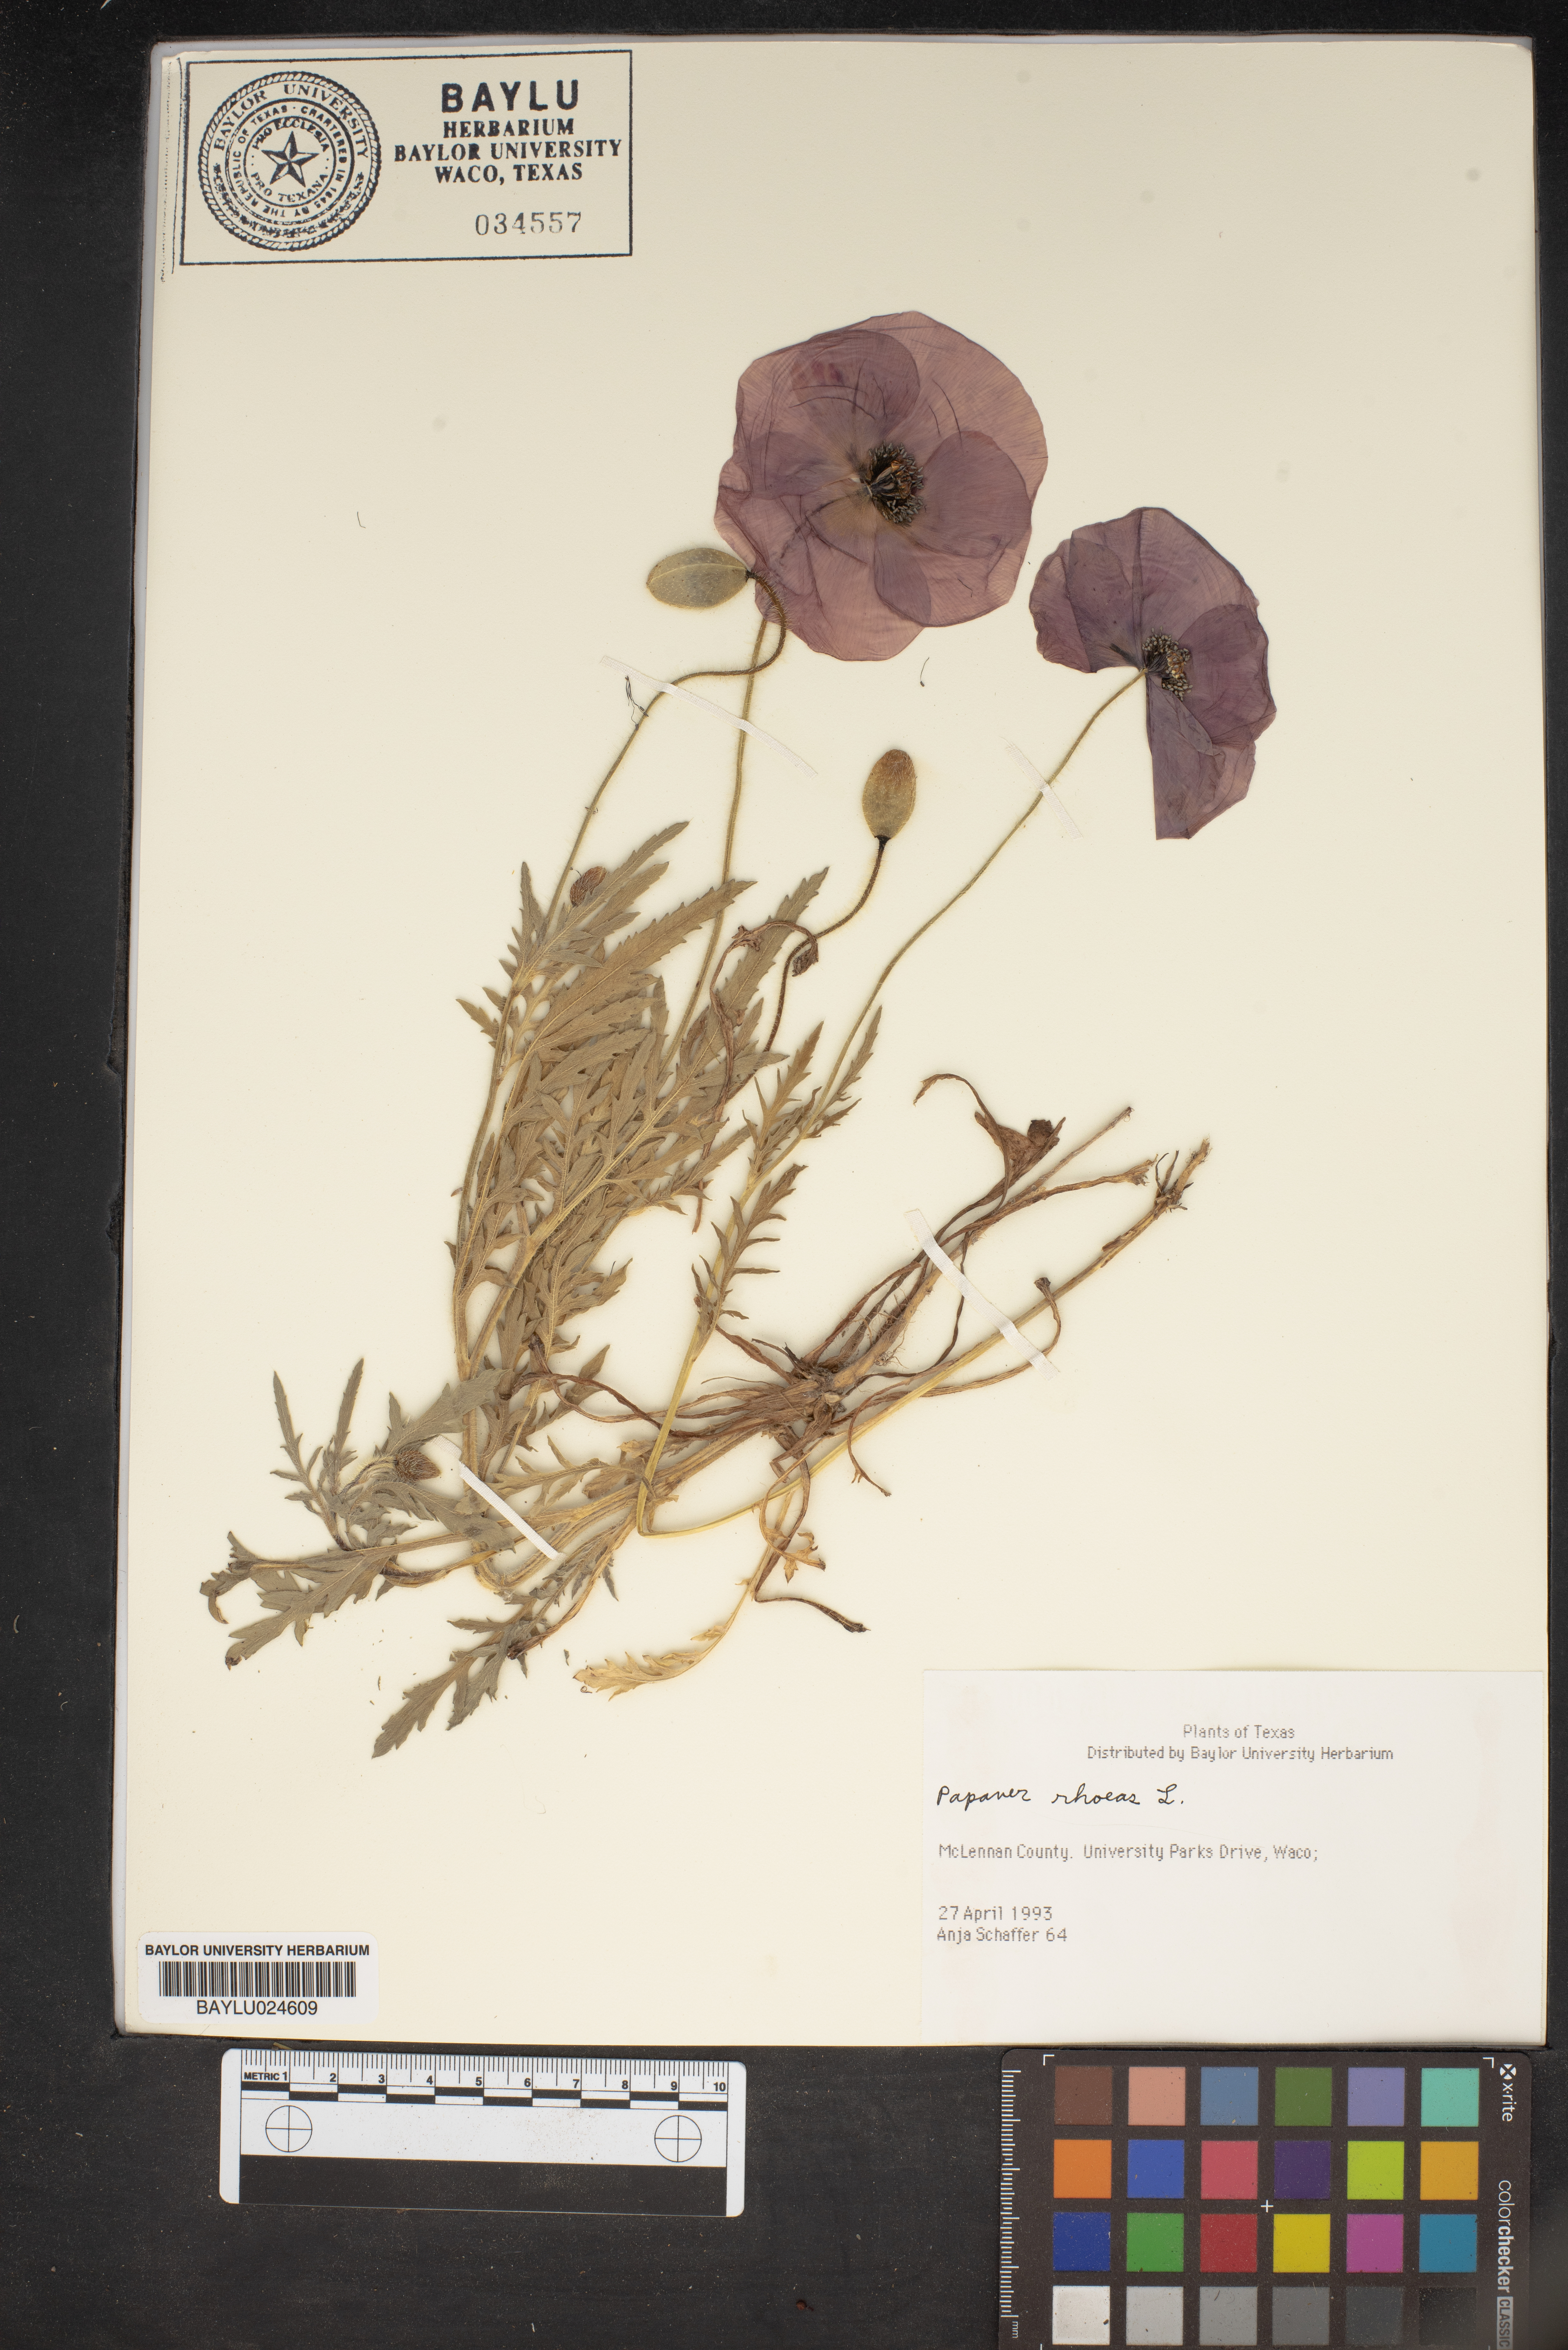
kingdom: Plantae
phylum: Tracheophyta
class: Magnoliopsida
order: Ranunculales
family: Papaveraceae
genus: Papaver
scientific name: Papaver rhoeas
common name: Corn poppy
